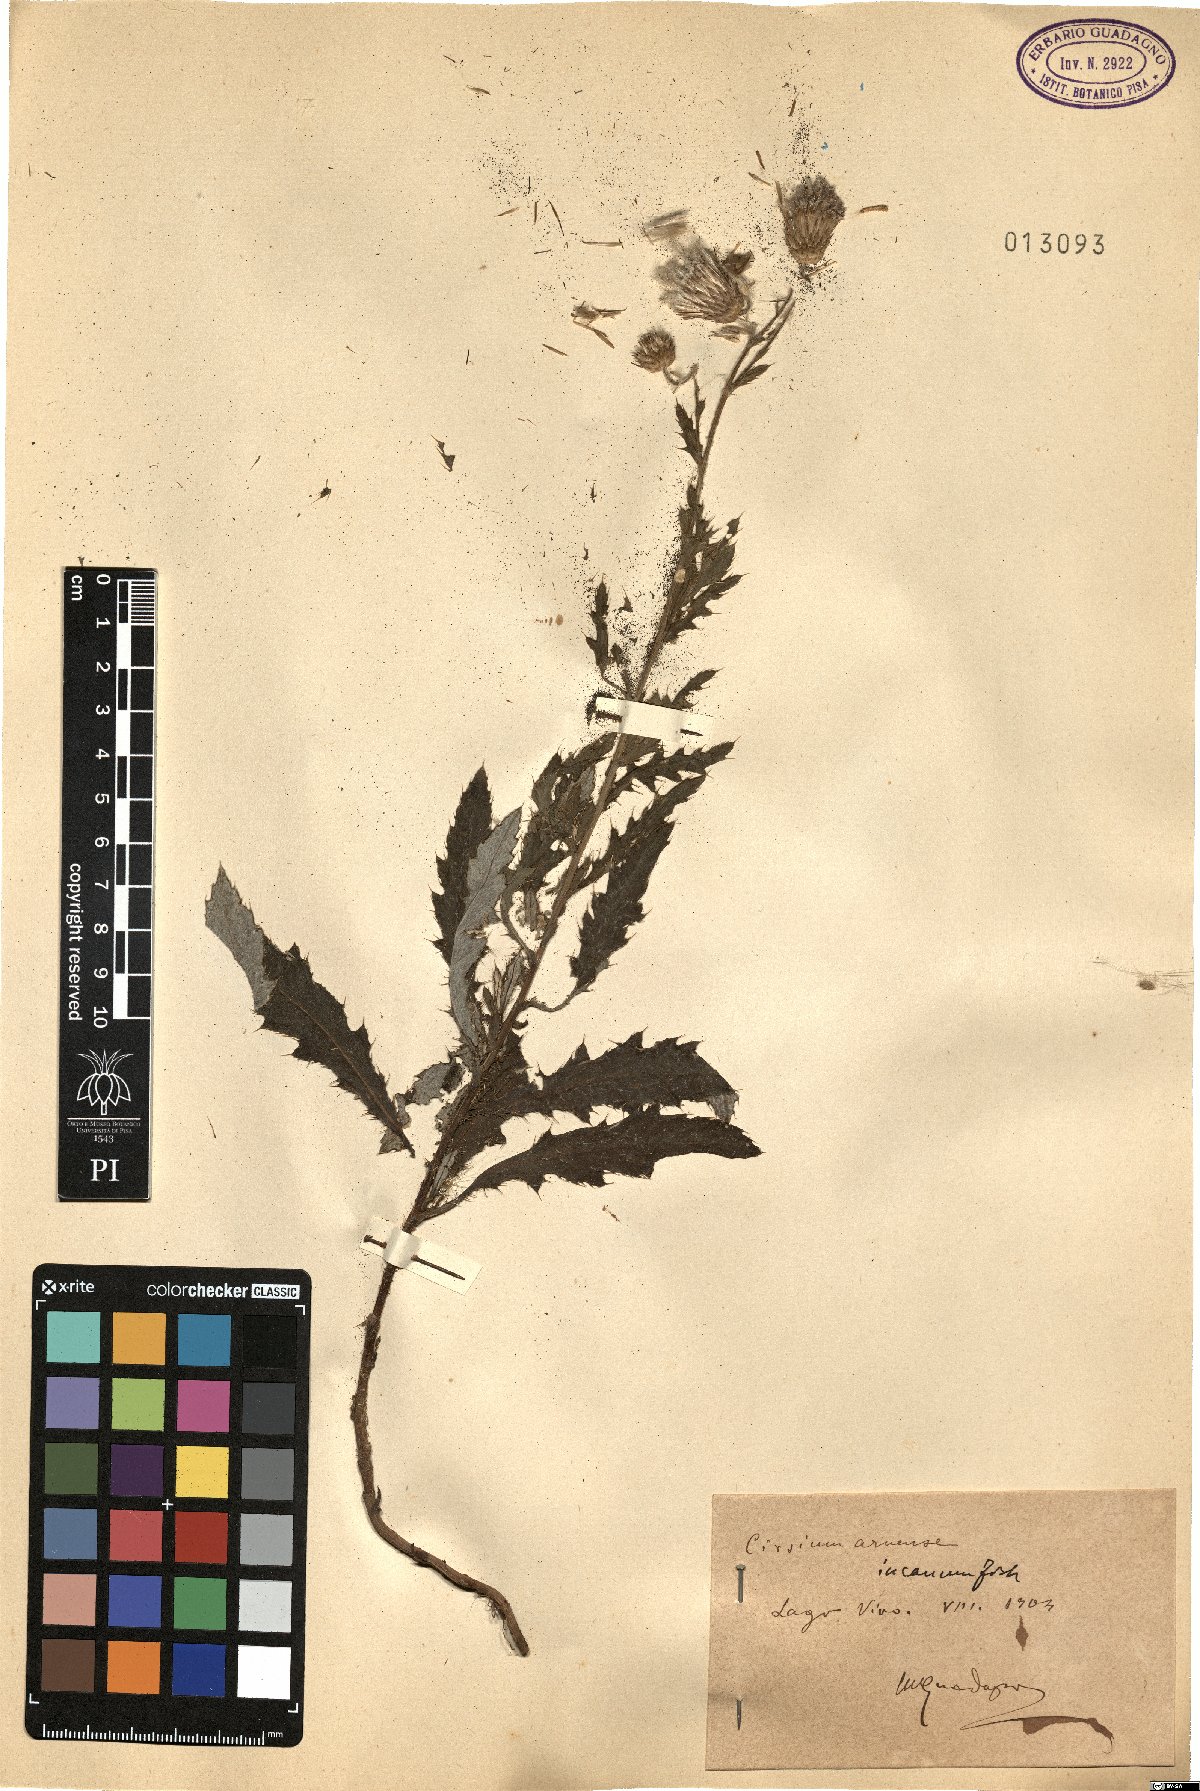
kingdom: Plantae
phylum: Tracheophyta
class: Magnoliopsida
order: Asterales
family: Asteraceae
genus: Cirsium
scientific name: Cirsium arvense
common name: Creeping thistle
